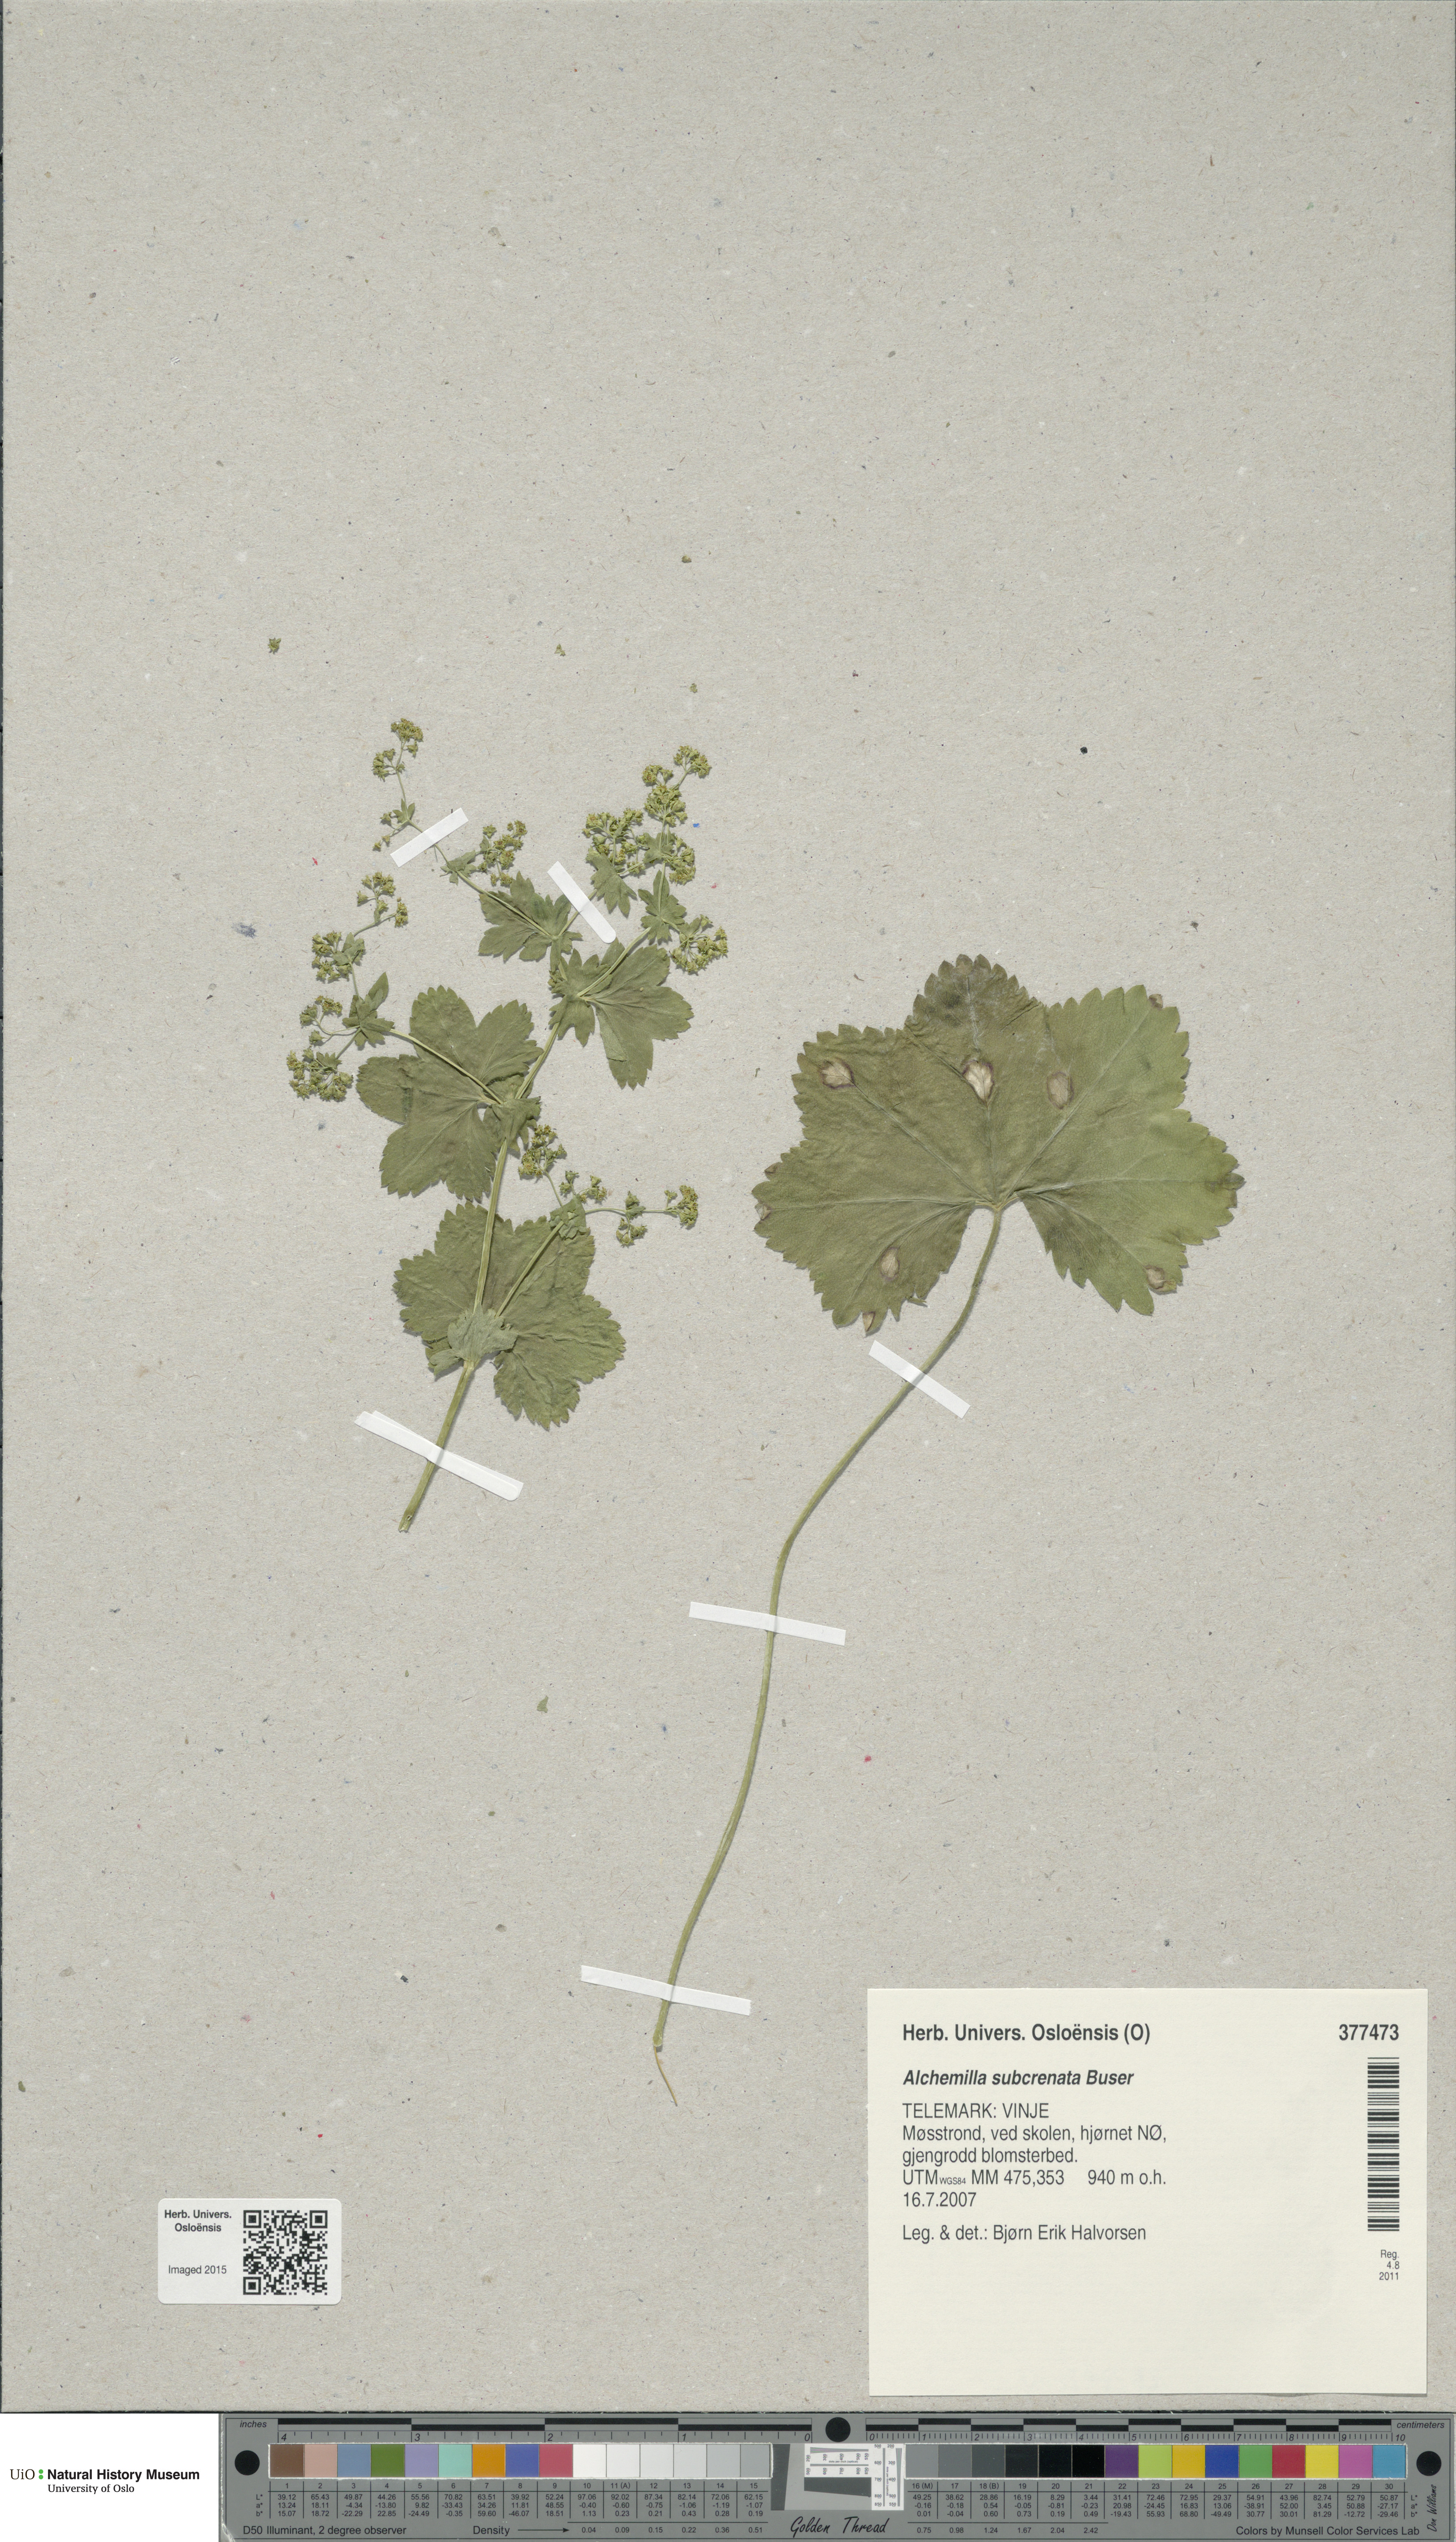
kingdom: Plantae
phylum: Tracheophyta
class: Magnoliopsida
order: Rosales
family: Rosaceae
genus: Alchemilla
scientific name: Alchemilla subcrenata
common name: Broadtooth lady's mantle
